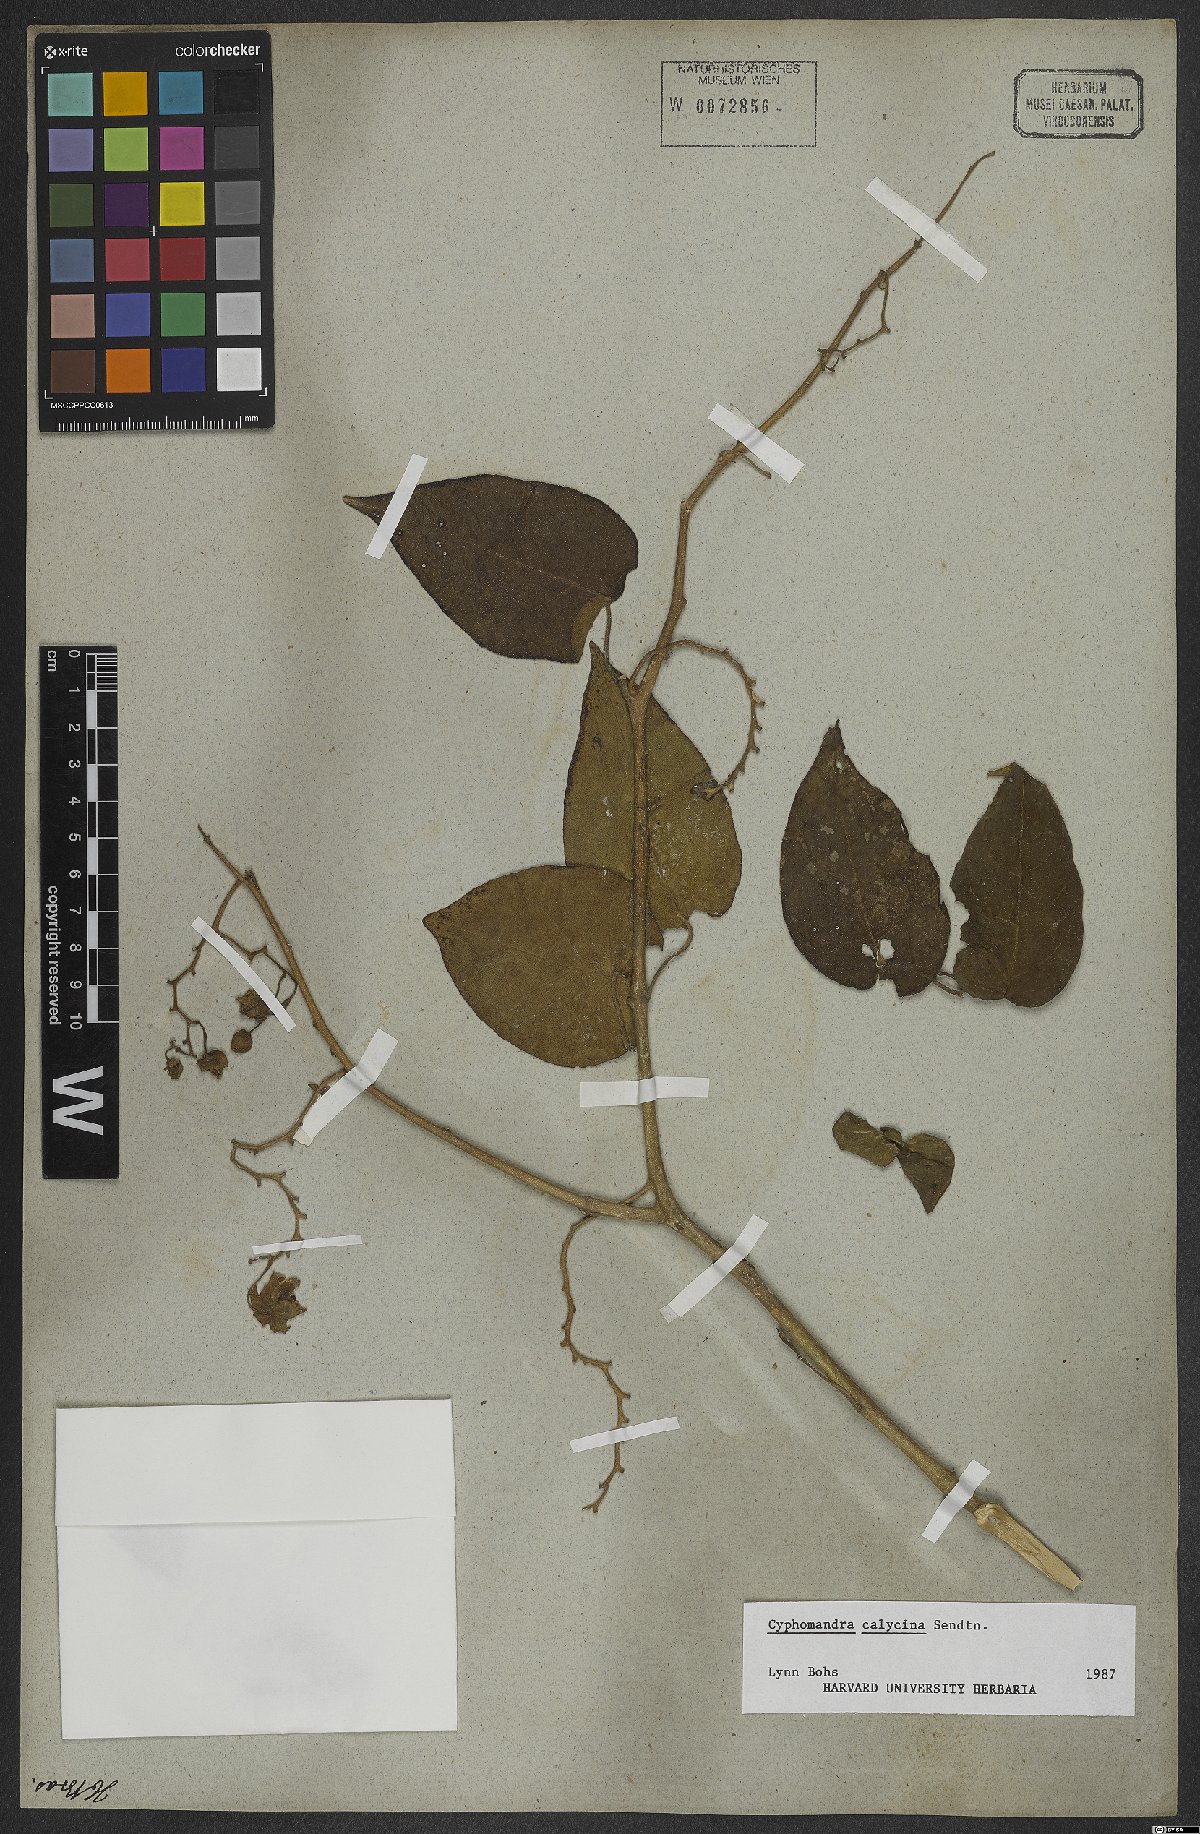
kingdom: Plantae
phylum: Tracheophyta
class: Magnoliopsida
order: Solanales
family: Solanaceae
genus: Solanum
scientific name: Solanum latiflorum
